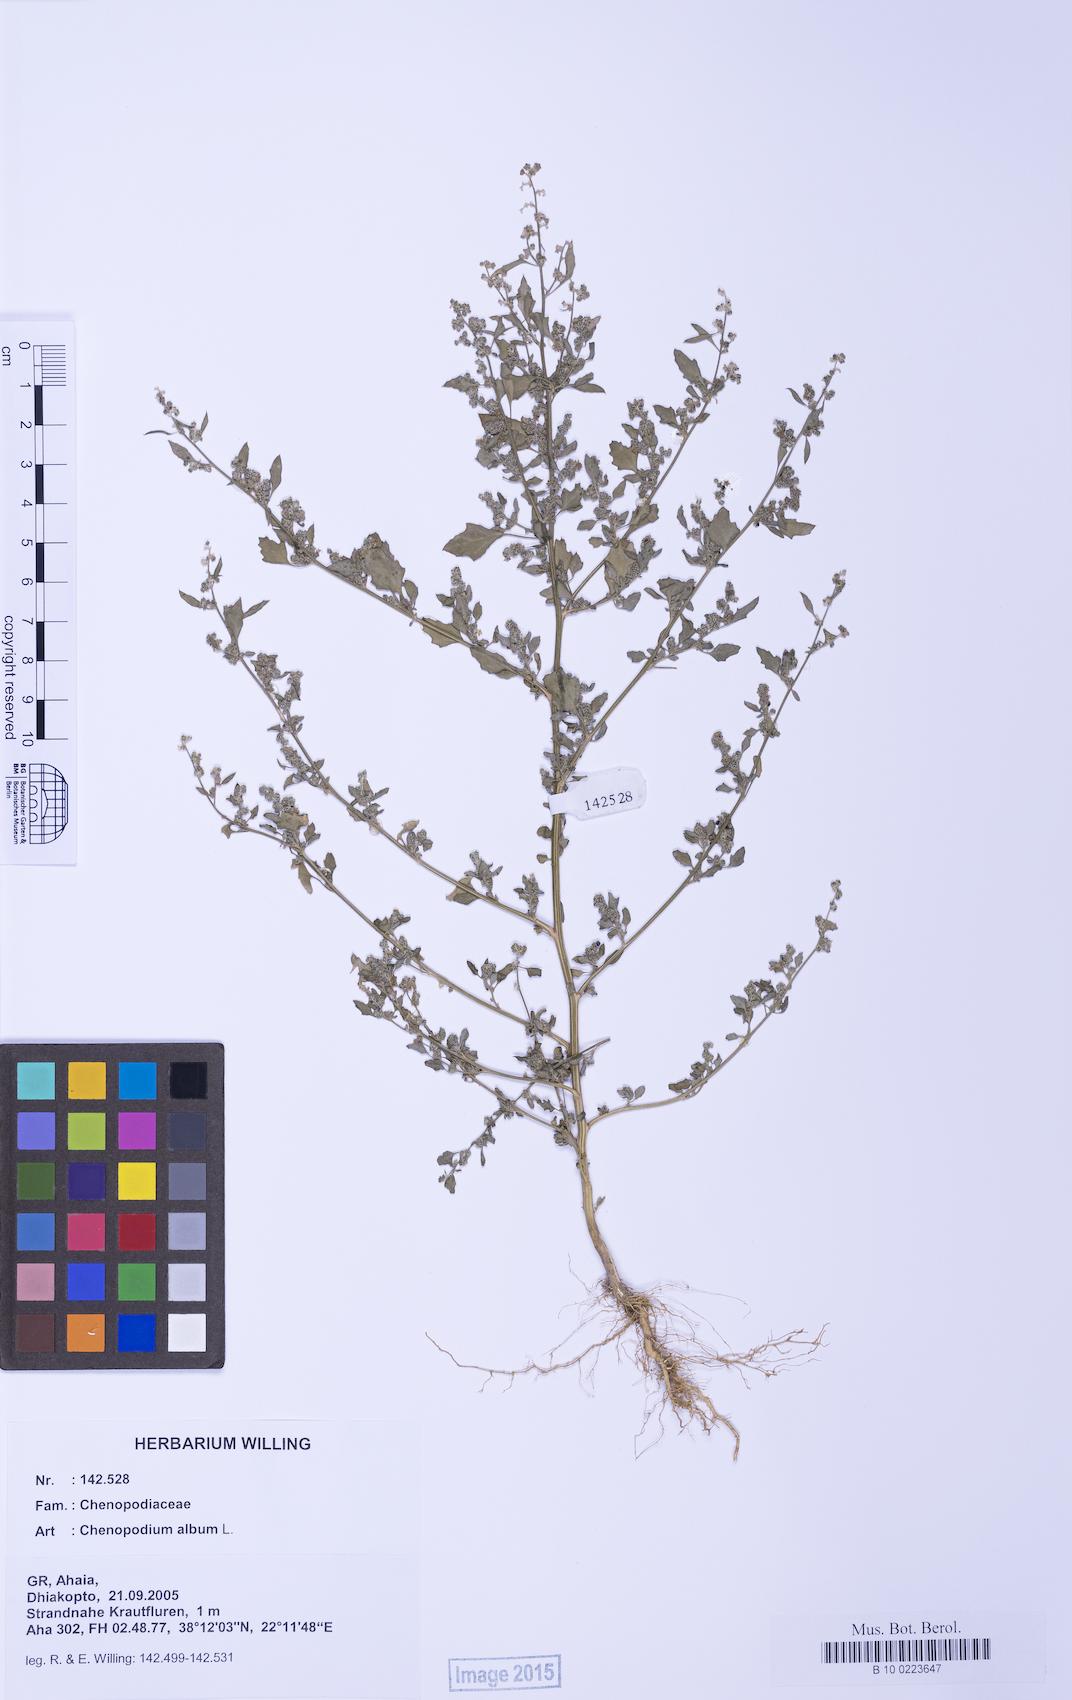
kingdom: Plantae
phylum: Tracheophyta
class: Magnoliopsida
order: Caryophyllales
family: Amaranthaceae
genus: Chenopodium
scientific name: Chenopodium album
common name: Fat-hen
